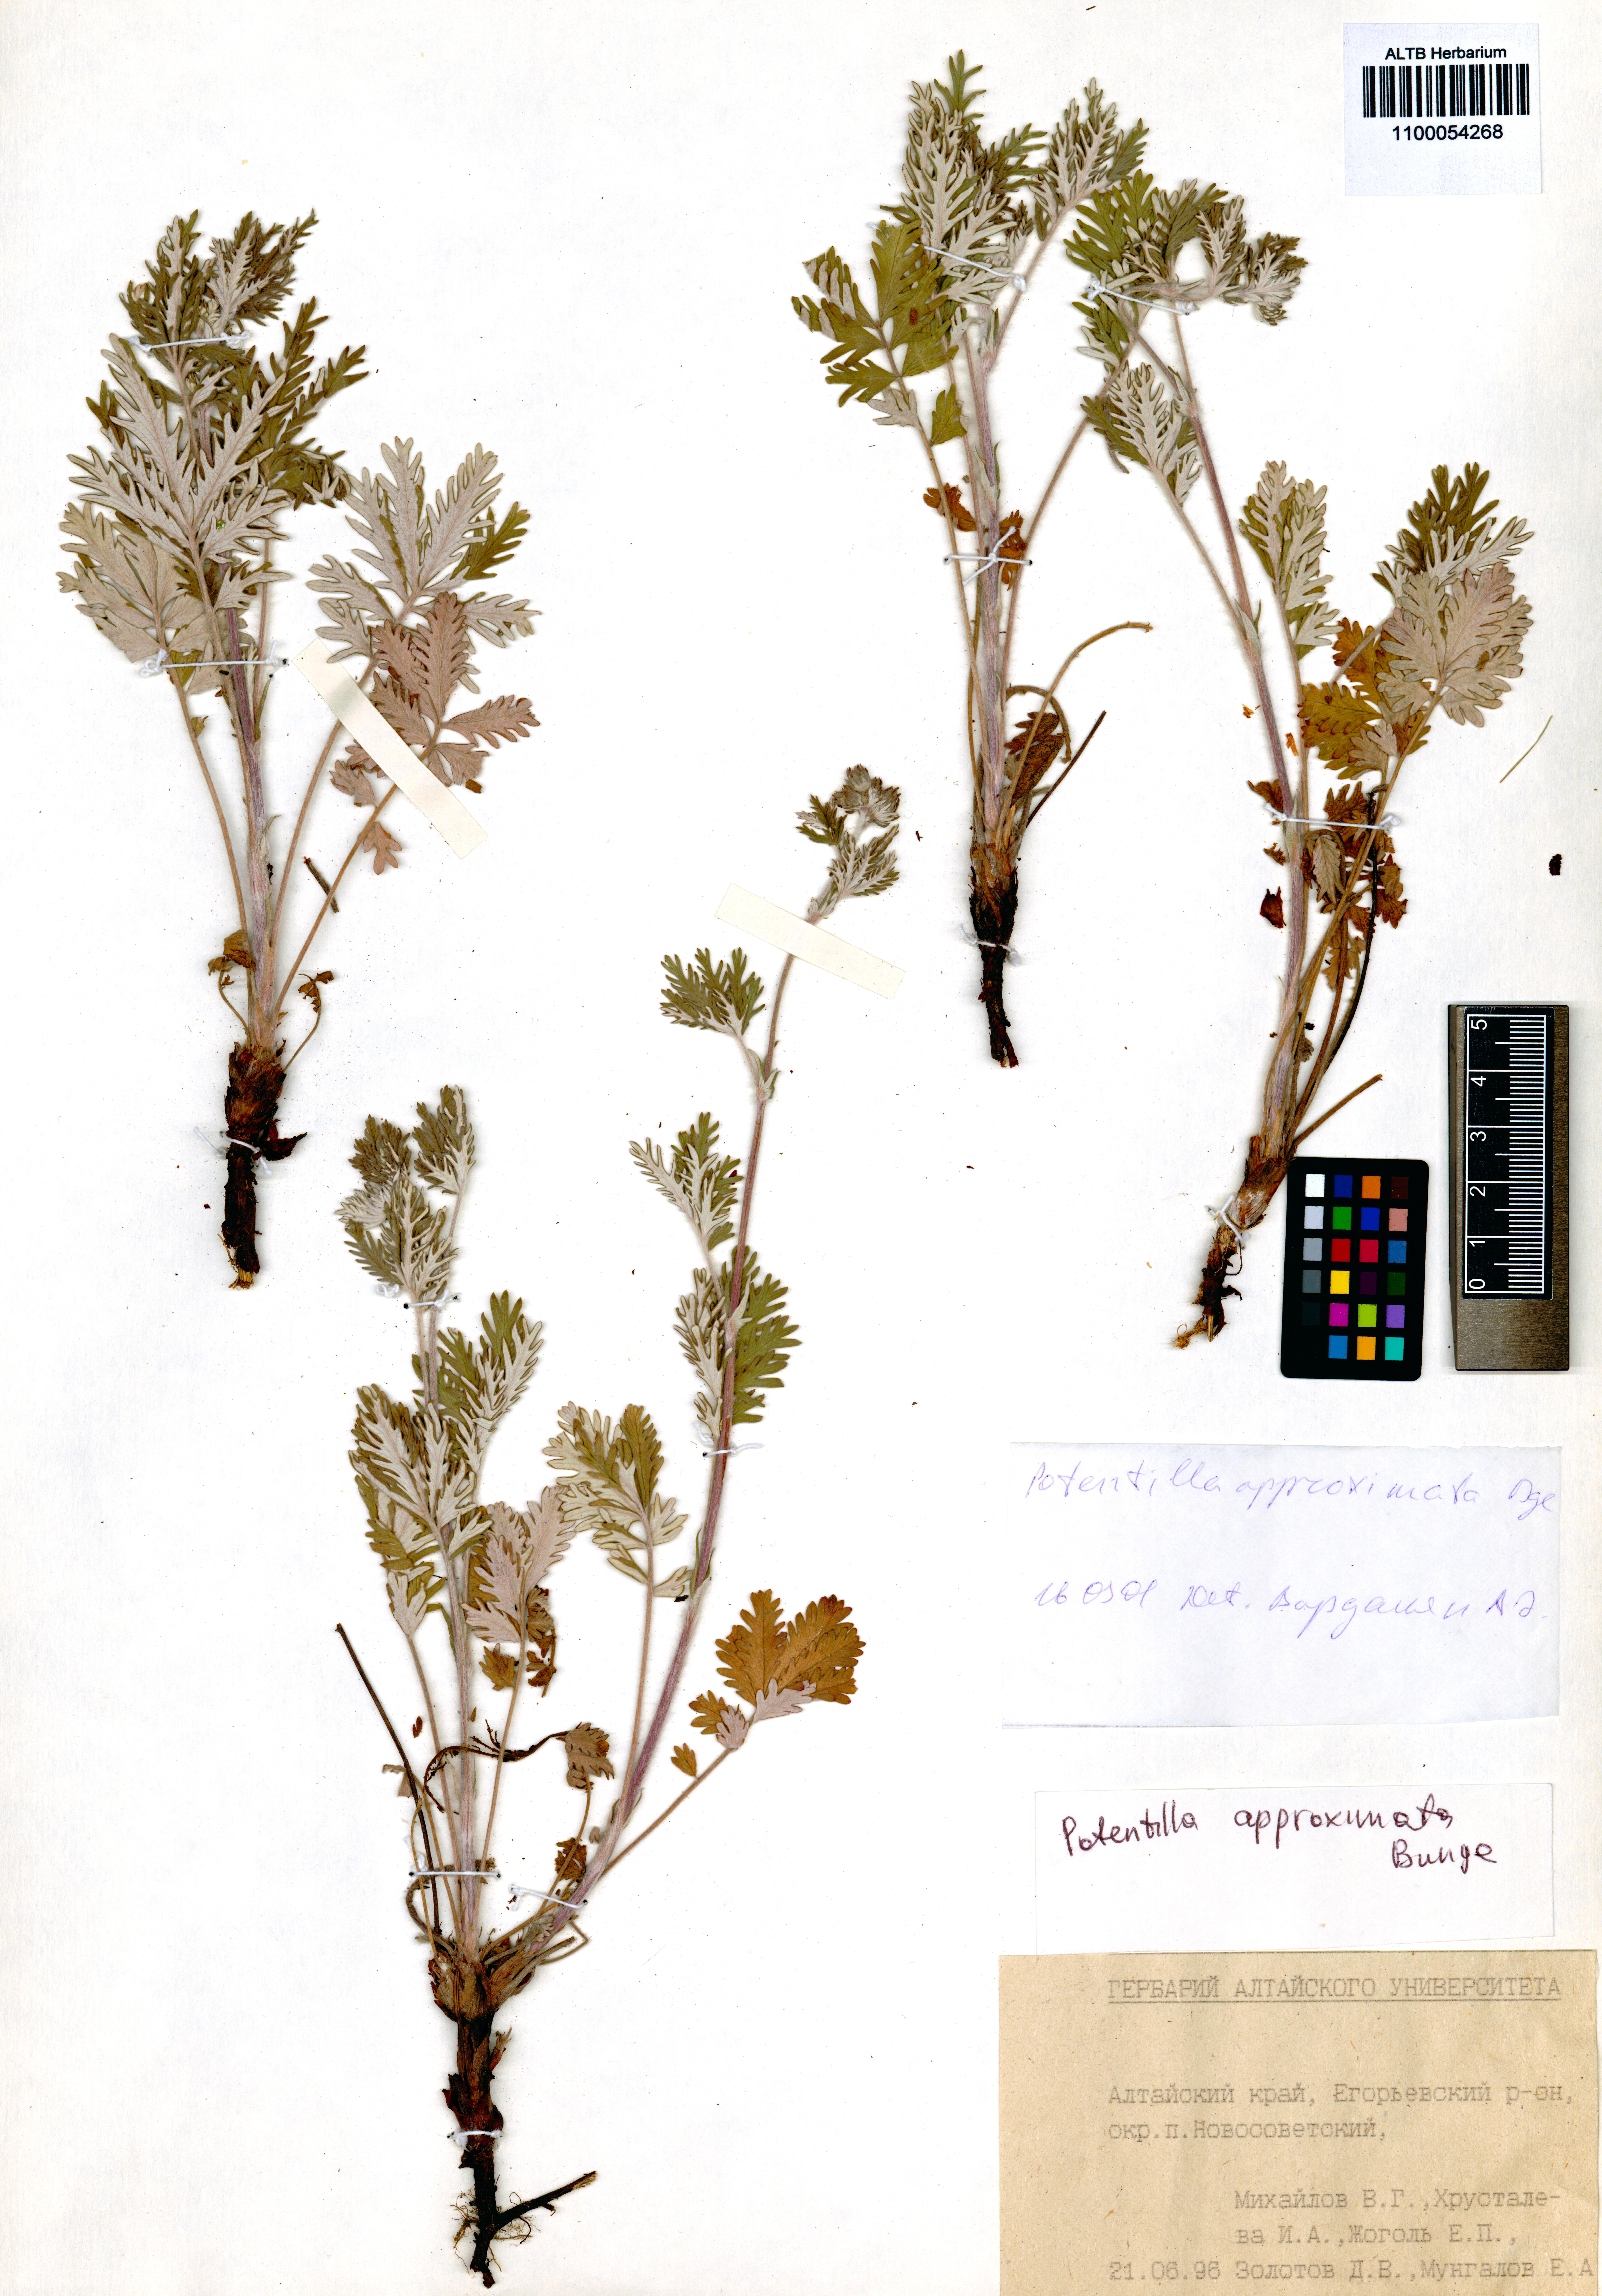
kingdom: Plantae
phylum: Tracheophyta
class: Magnoliopsida
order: Rosales
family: Rosaceae
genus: Potentilla
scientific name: Potentilla conferta
